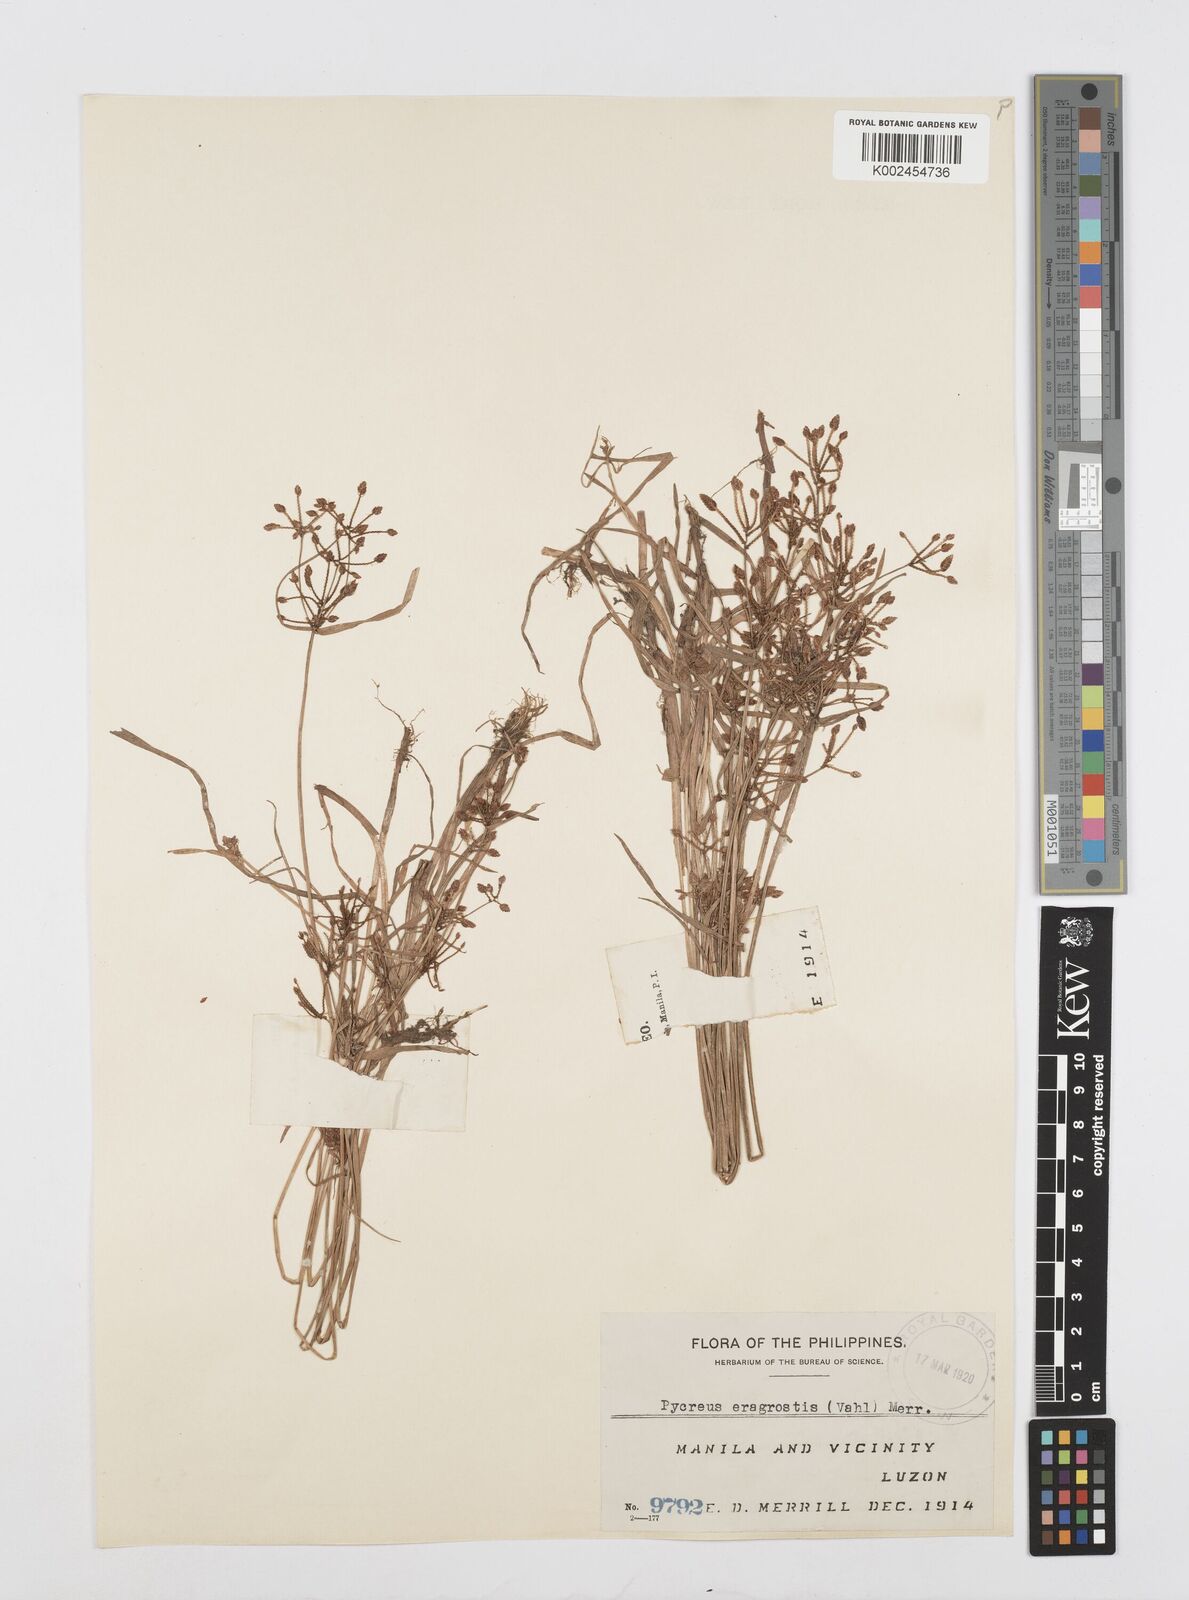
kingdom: Plantae
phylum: Tracheophyta
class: Liliopsida
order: Poales
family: Cyperaceae
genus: Cyperus
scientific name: Cyperus sanguinolentus
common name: Purpleglume flatsedge
